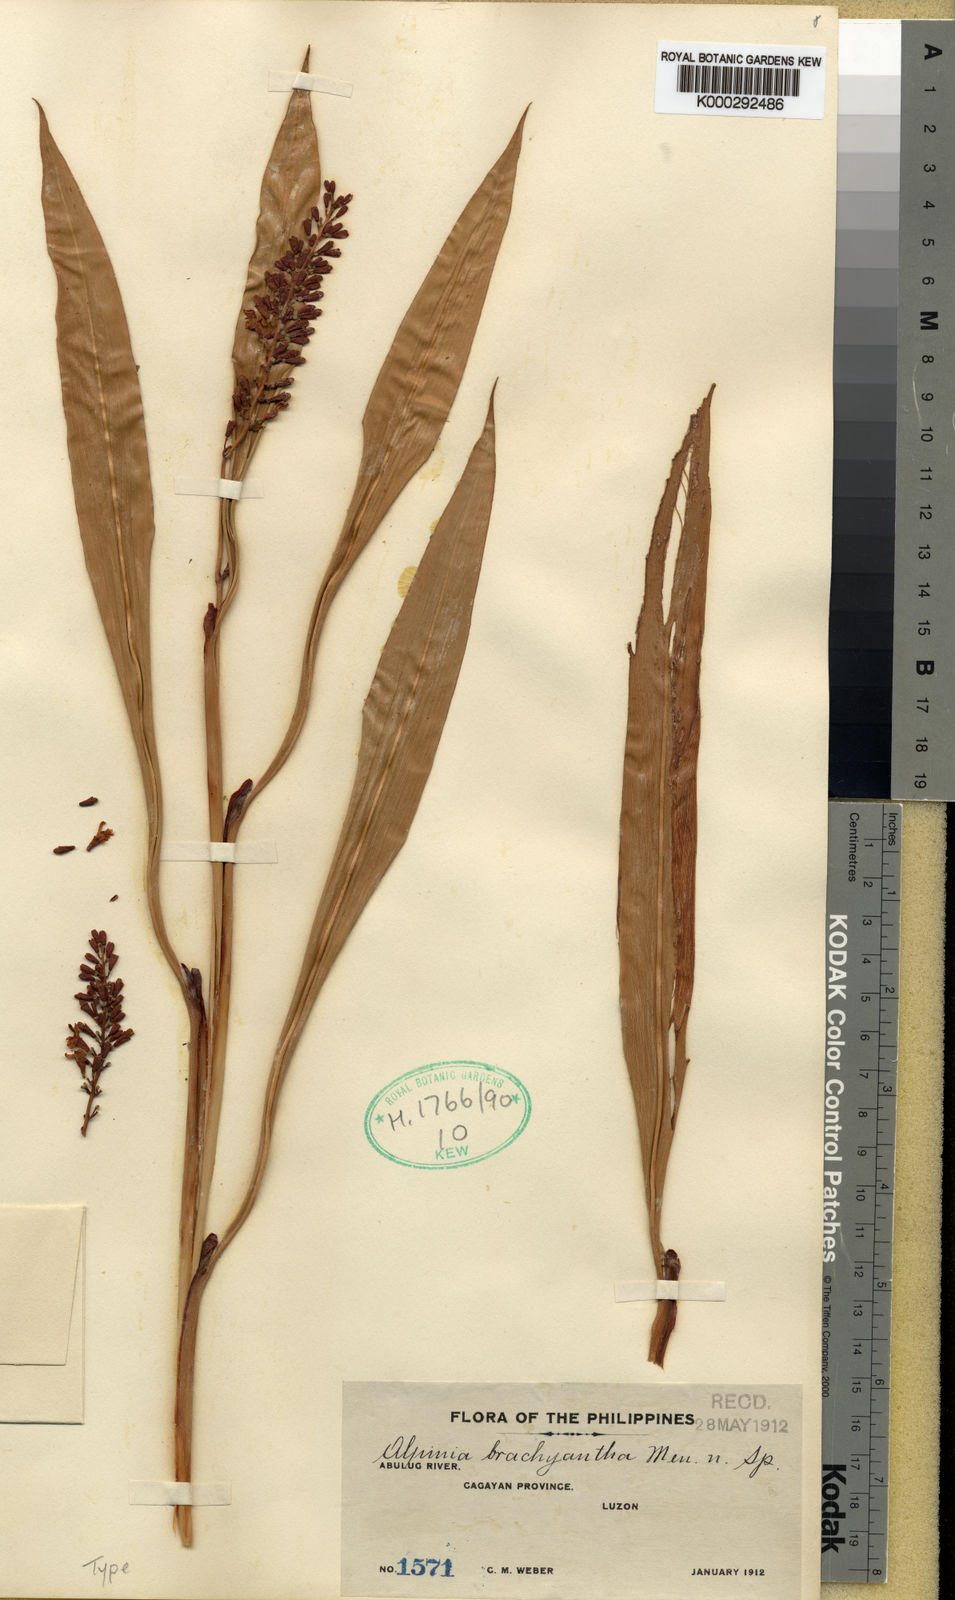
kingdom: Plantae
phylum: Tracheophyta
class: Liliopsida
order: Zingiberales
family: Zingiberaceae
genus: Alpinia
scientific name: Alpinia brachyantha
